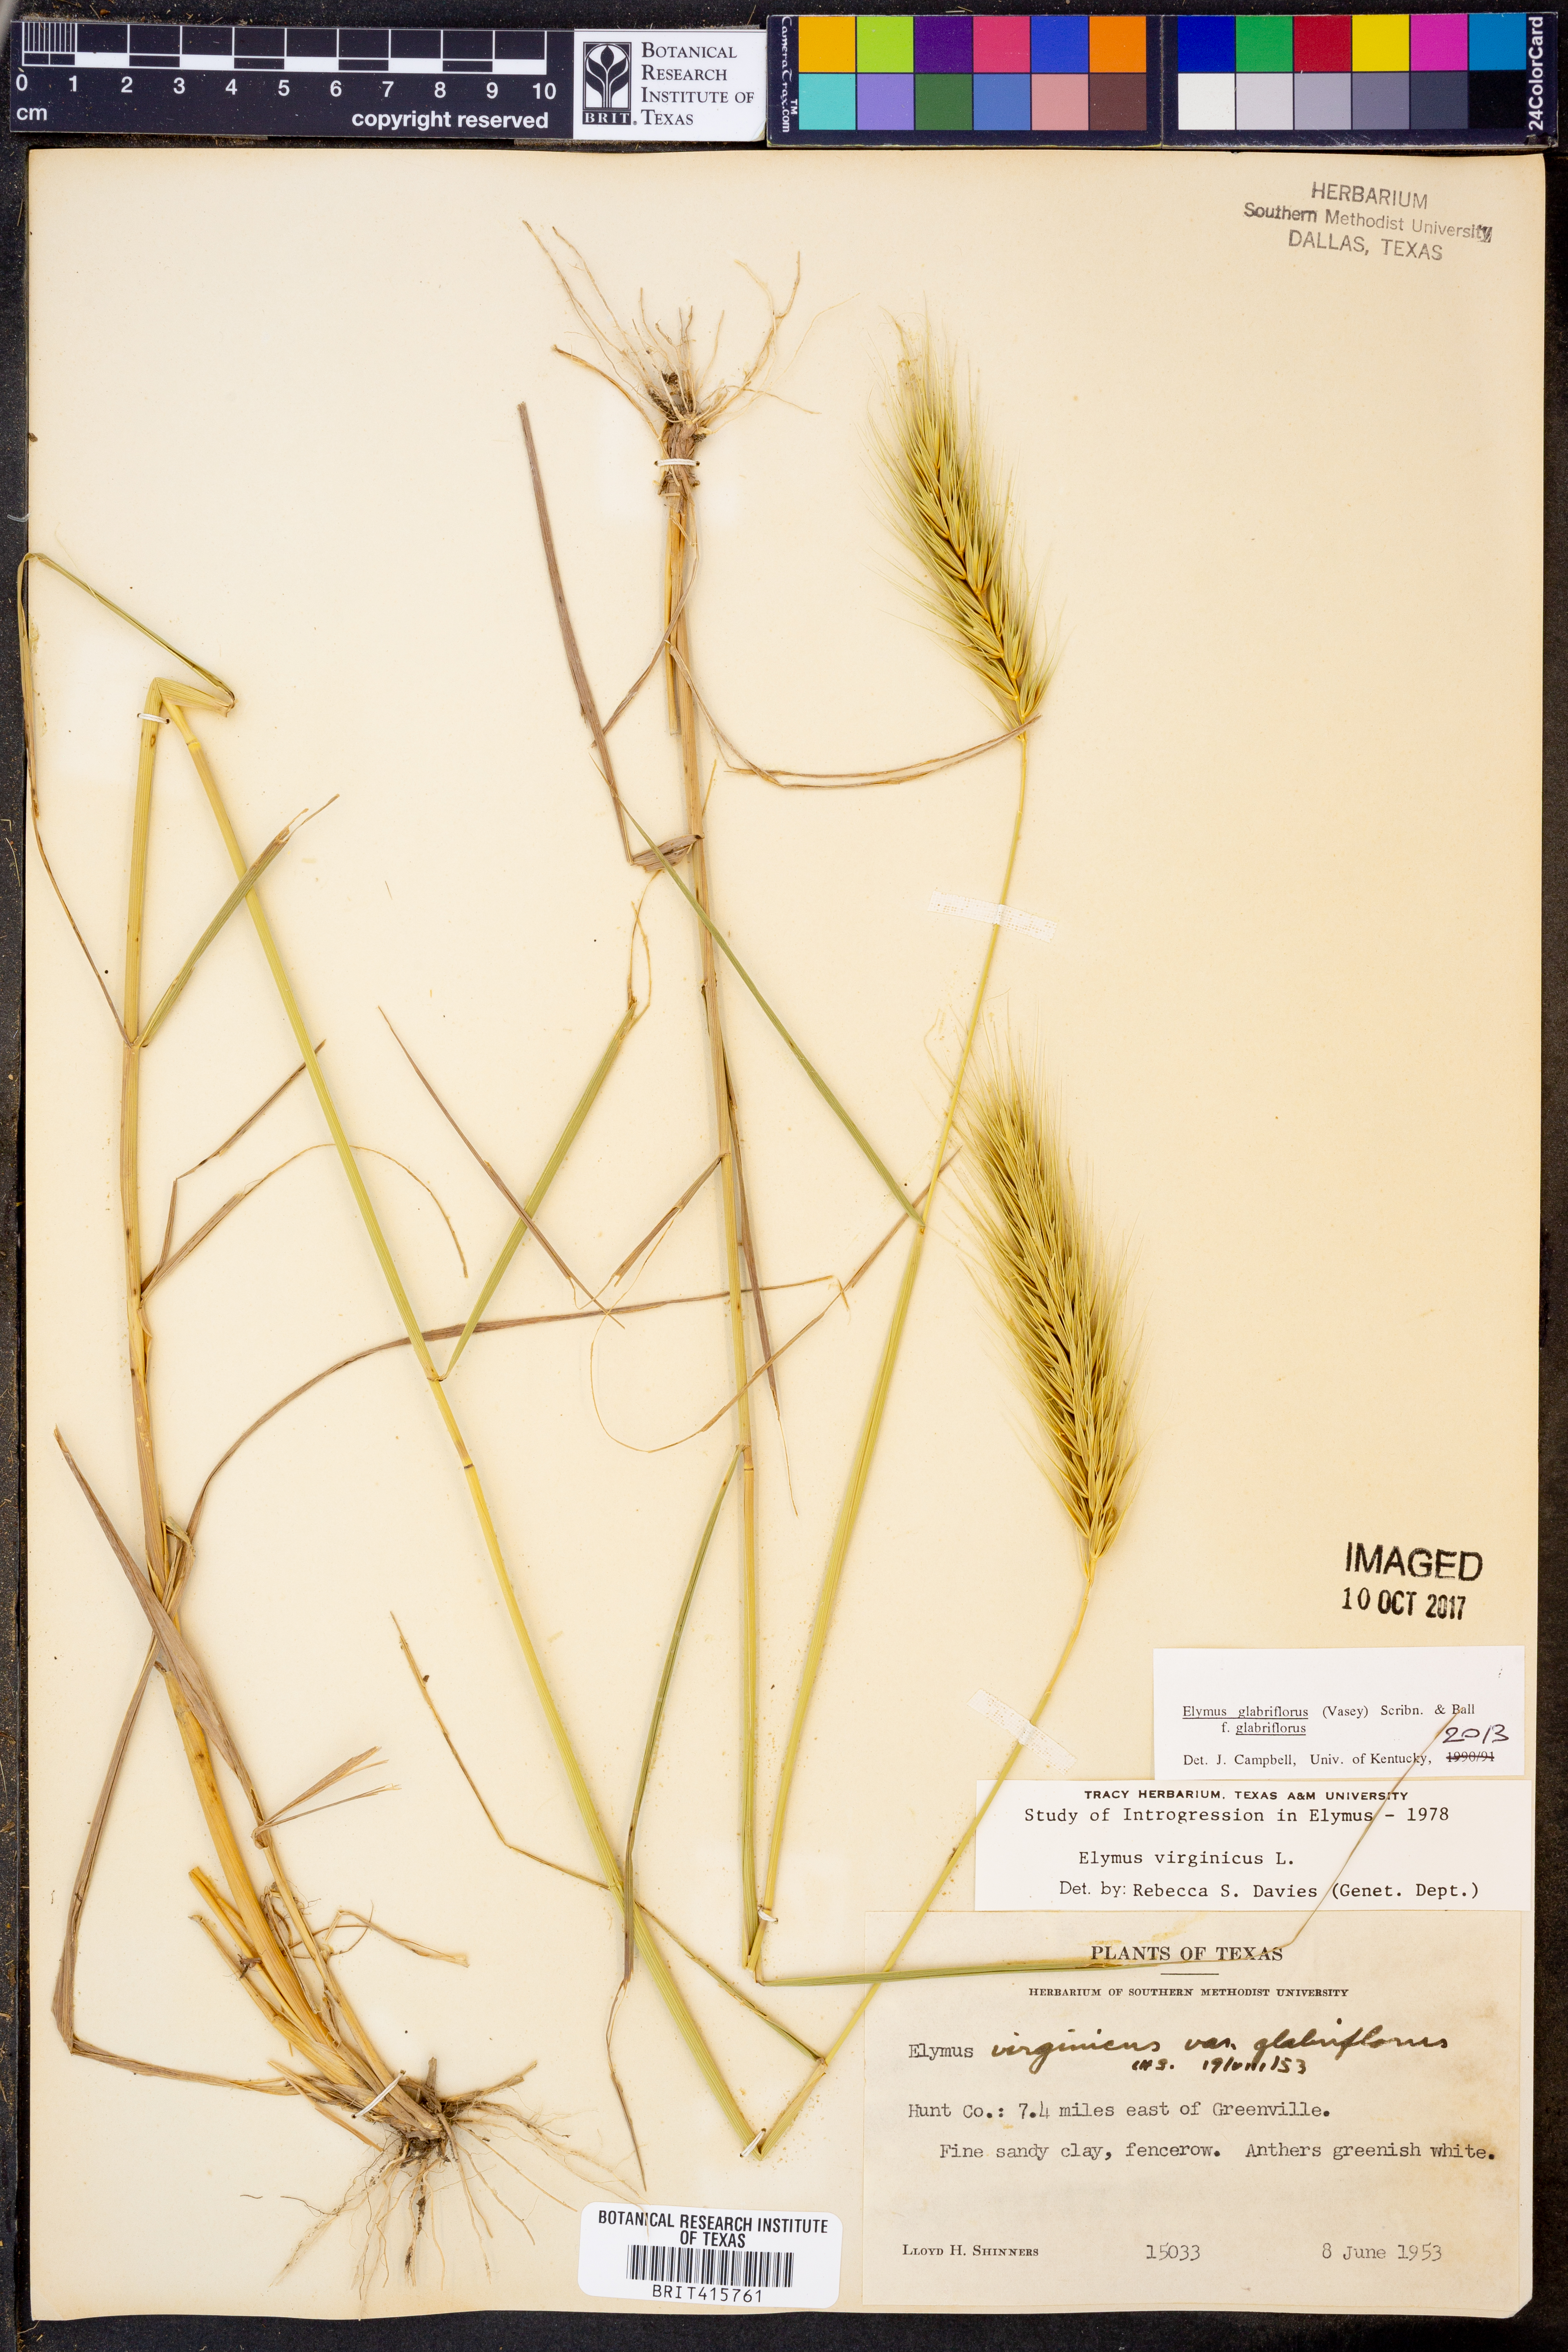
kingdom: Plantae
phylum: Tracheophyta
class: Liliopsida
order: Poales
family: Poaceae
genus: Elymus
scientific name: Elymus virginicus
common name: Common eastern wildrye
